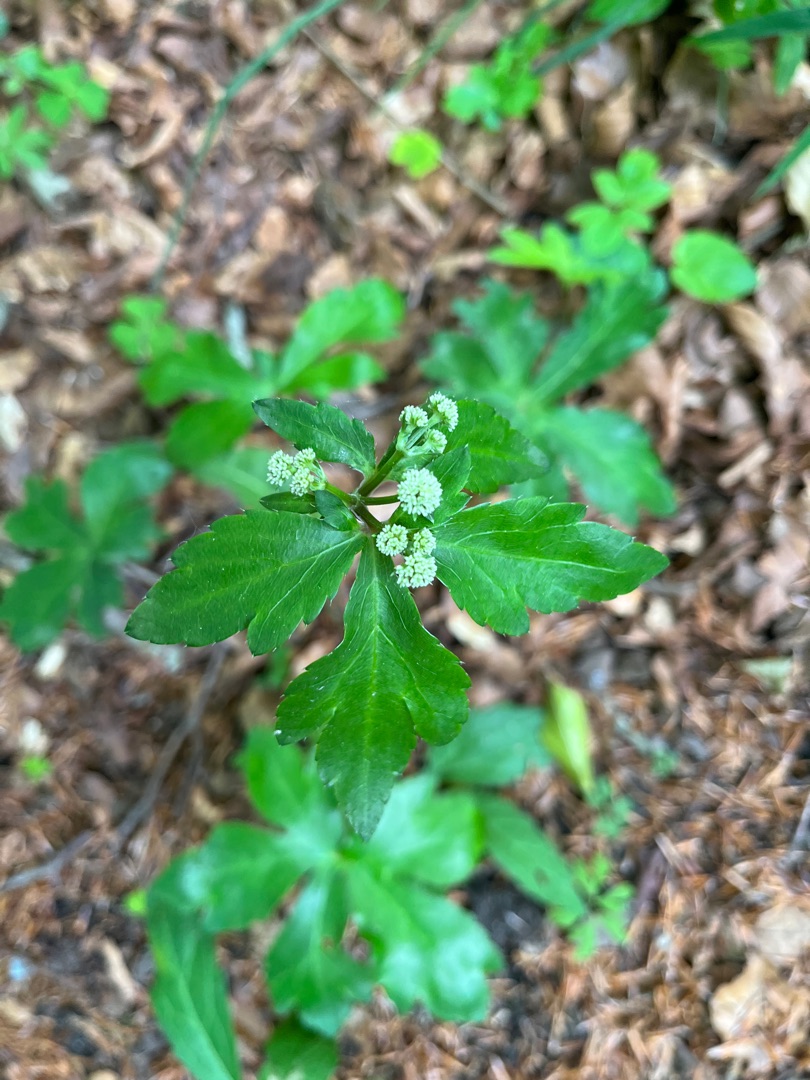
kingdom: Plantae
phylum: Tracheophyta
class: Magnoliopsida
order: Apiales
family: Apiaceae
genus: Sanicula
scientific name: Sanicula europaea
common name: Sanikel
